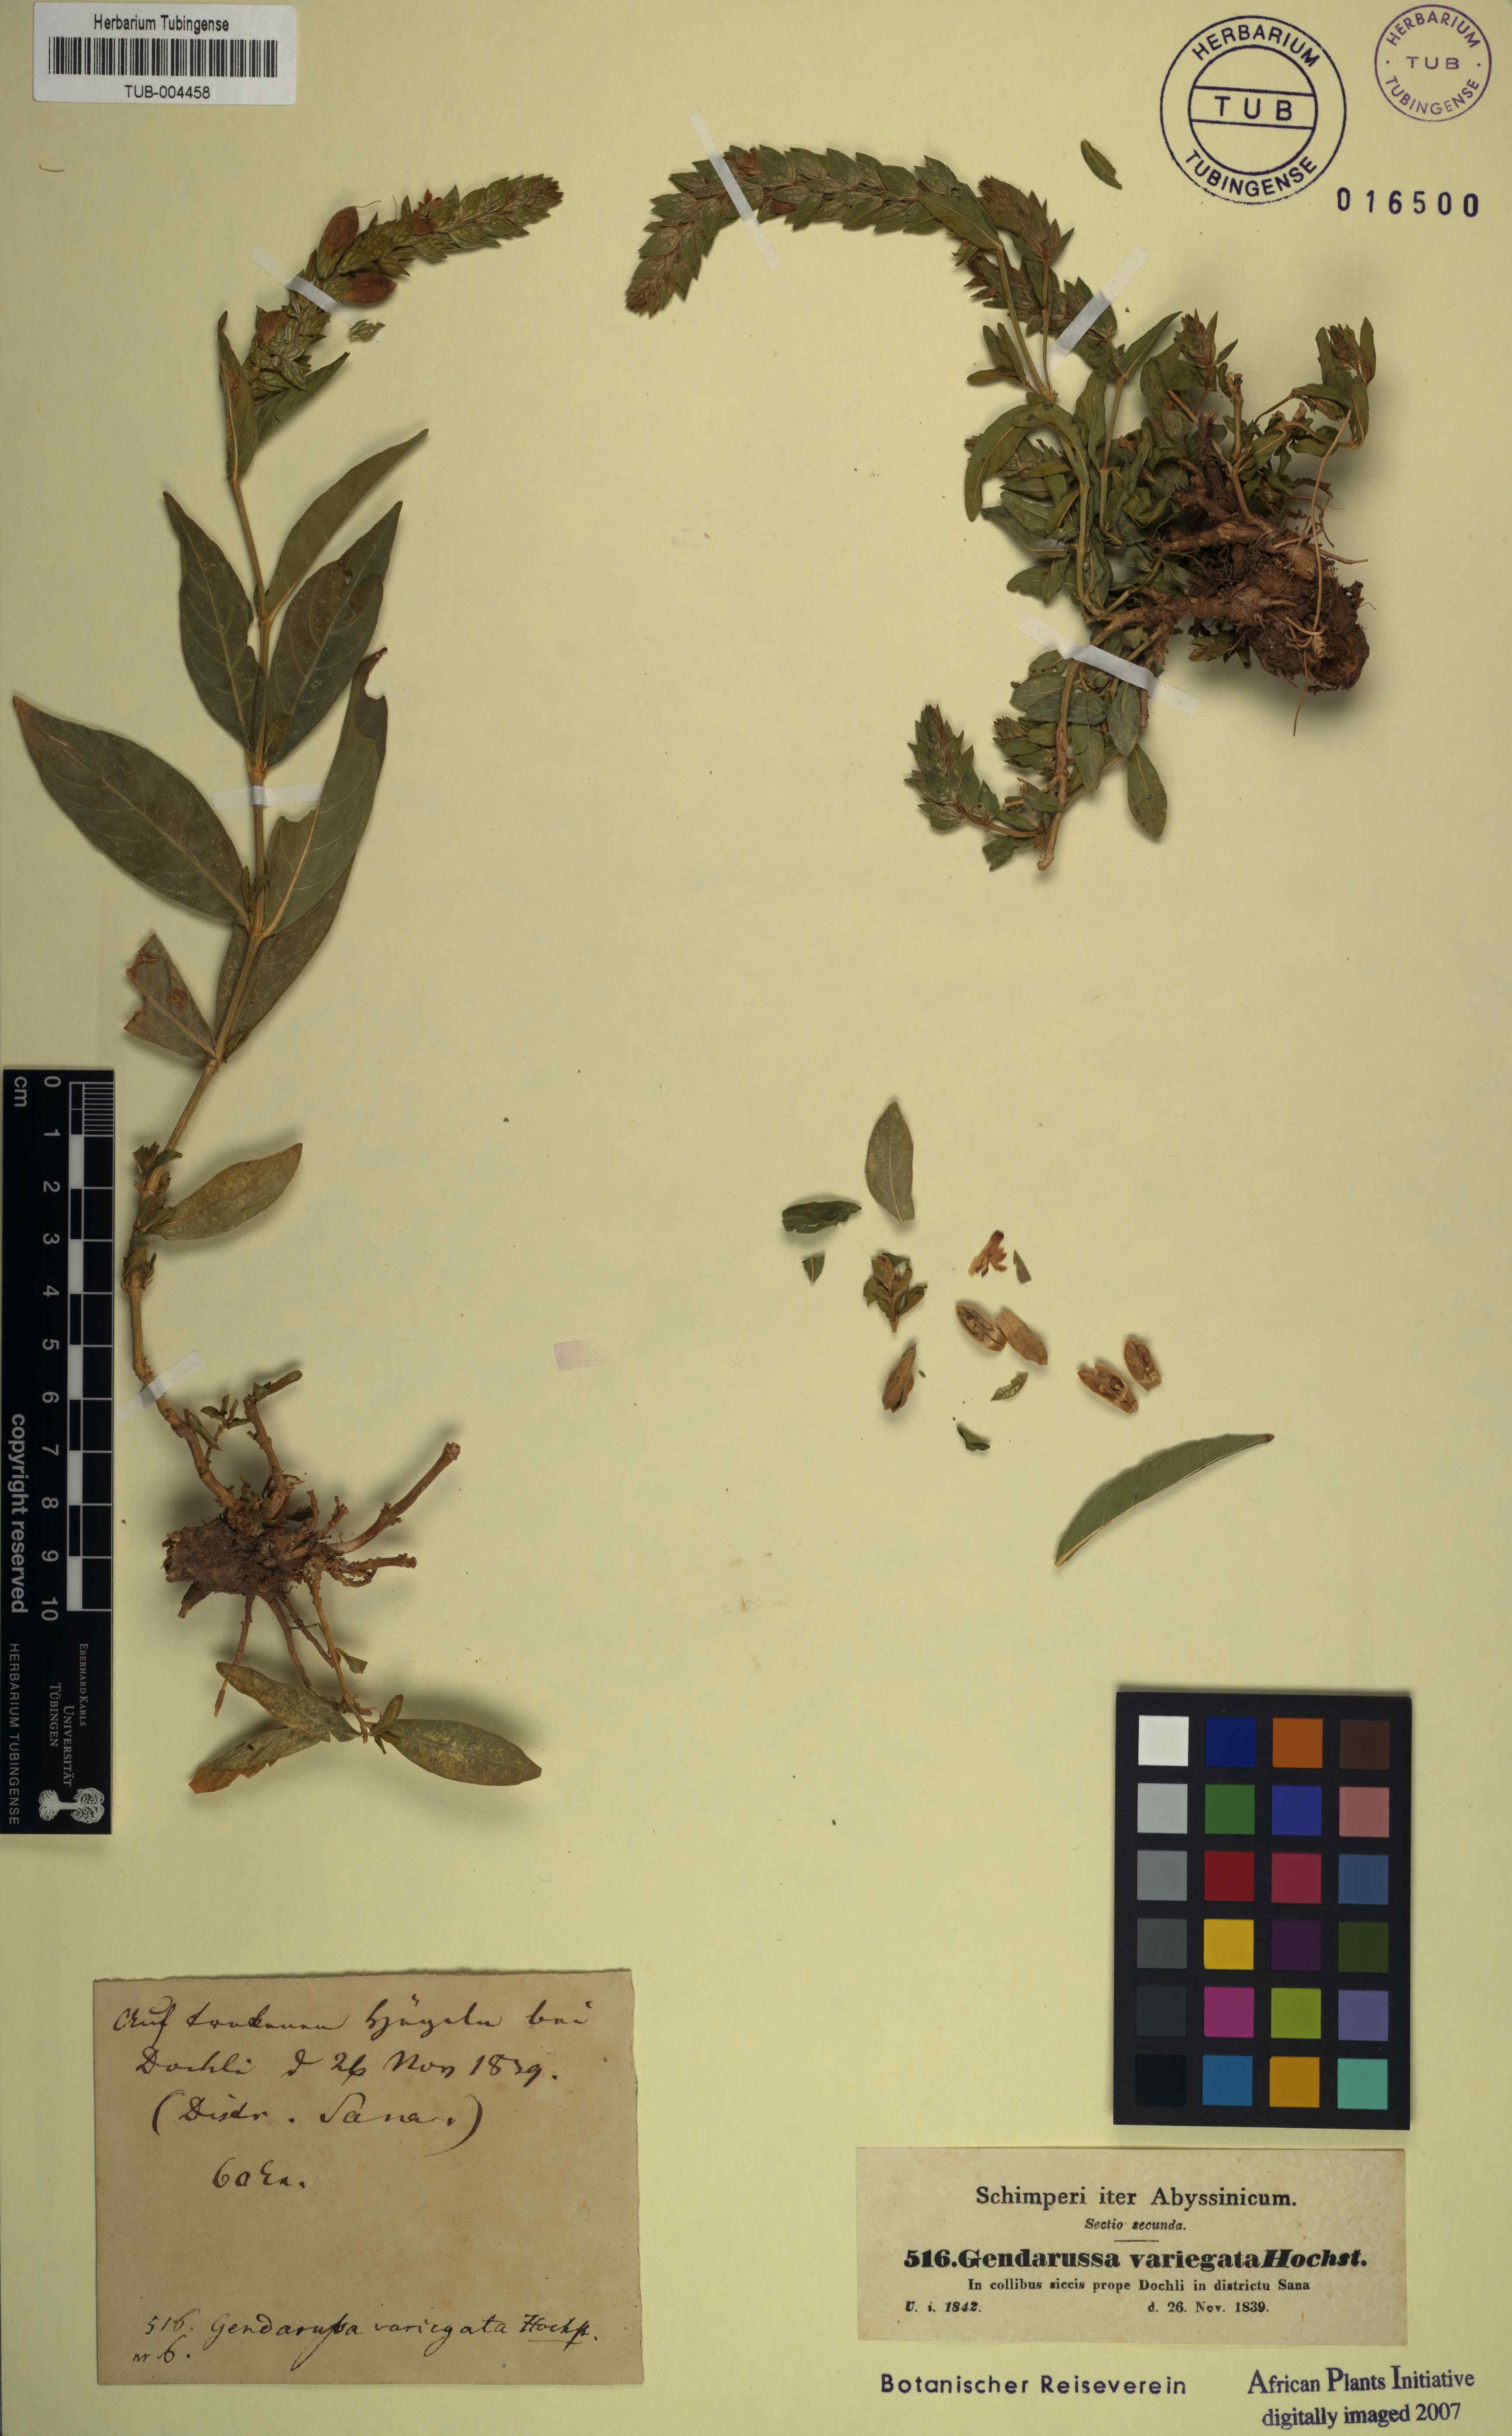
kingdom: Plantae
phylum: Tracheophyta
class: Magnoliopsida
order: Lamiales
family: Acanthaceae
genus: Nicoteba
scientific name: Nicoteba betonica
